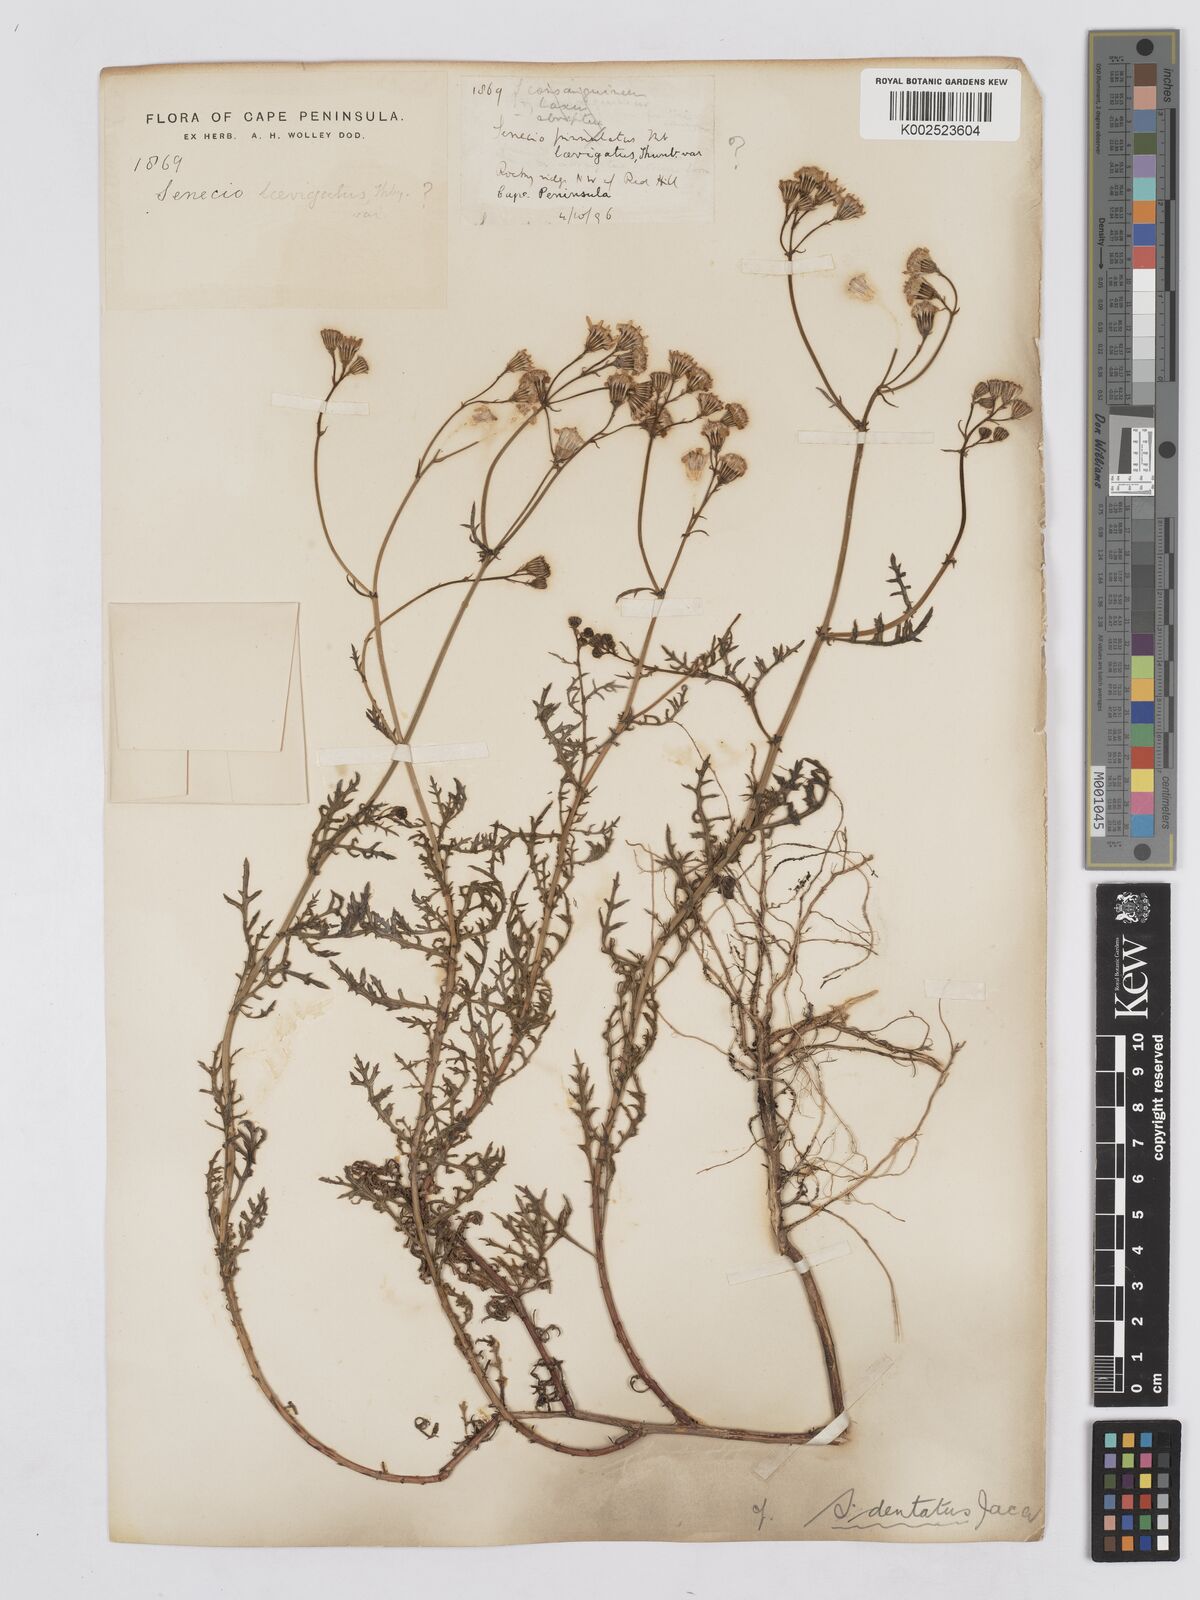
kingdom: Plantae
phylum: Tracheophyta
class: Magnoliopsida
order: Asterales
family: Asteraceae
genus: Senecio
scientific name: Senecio
